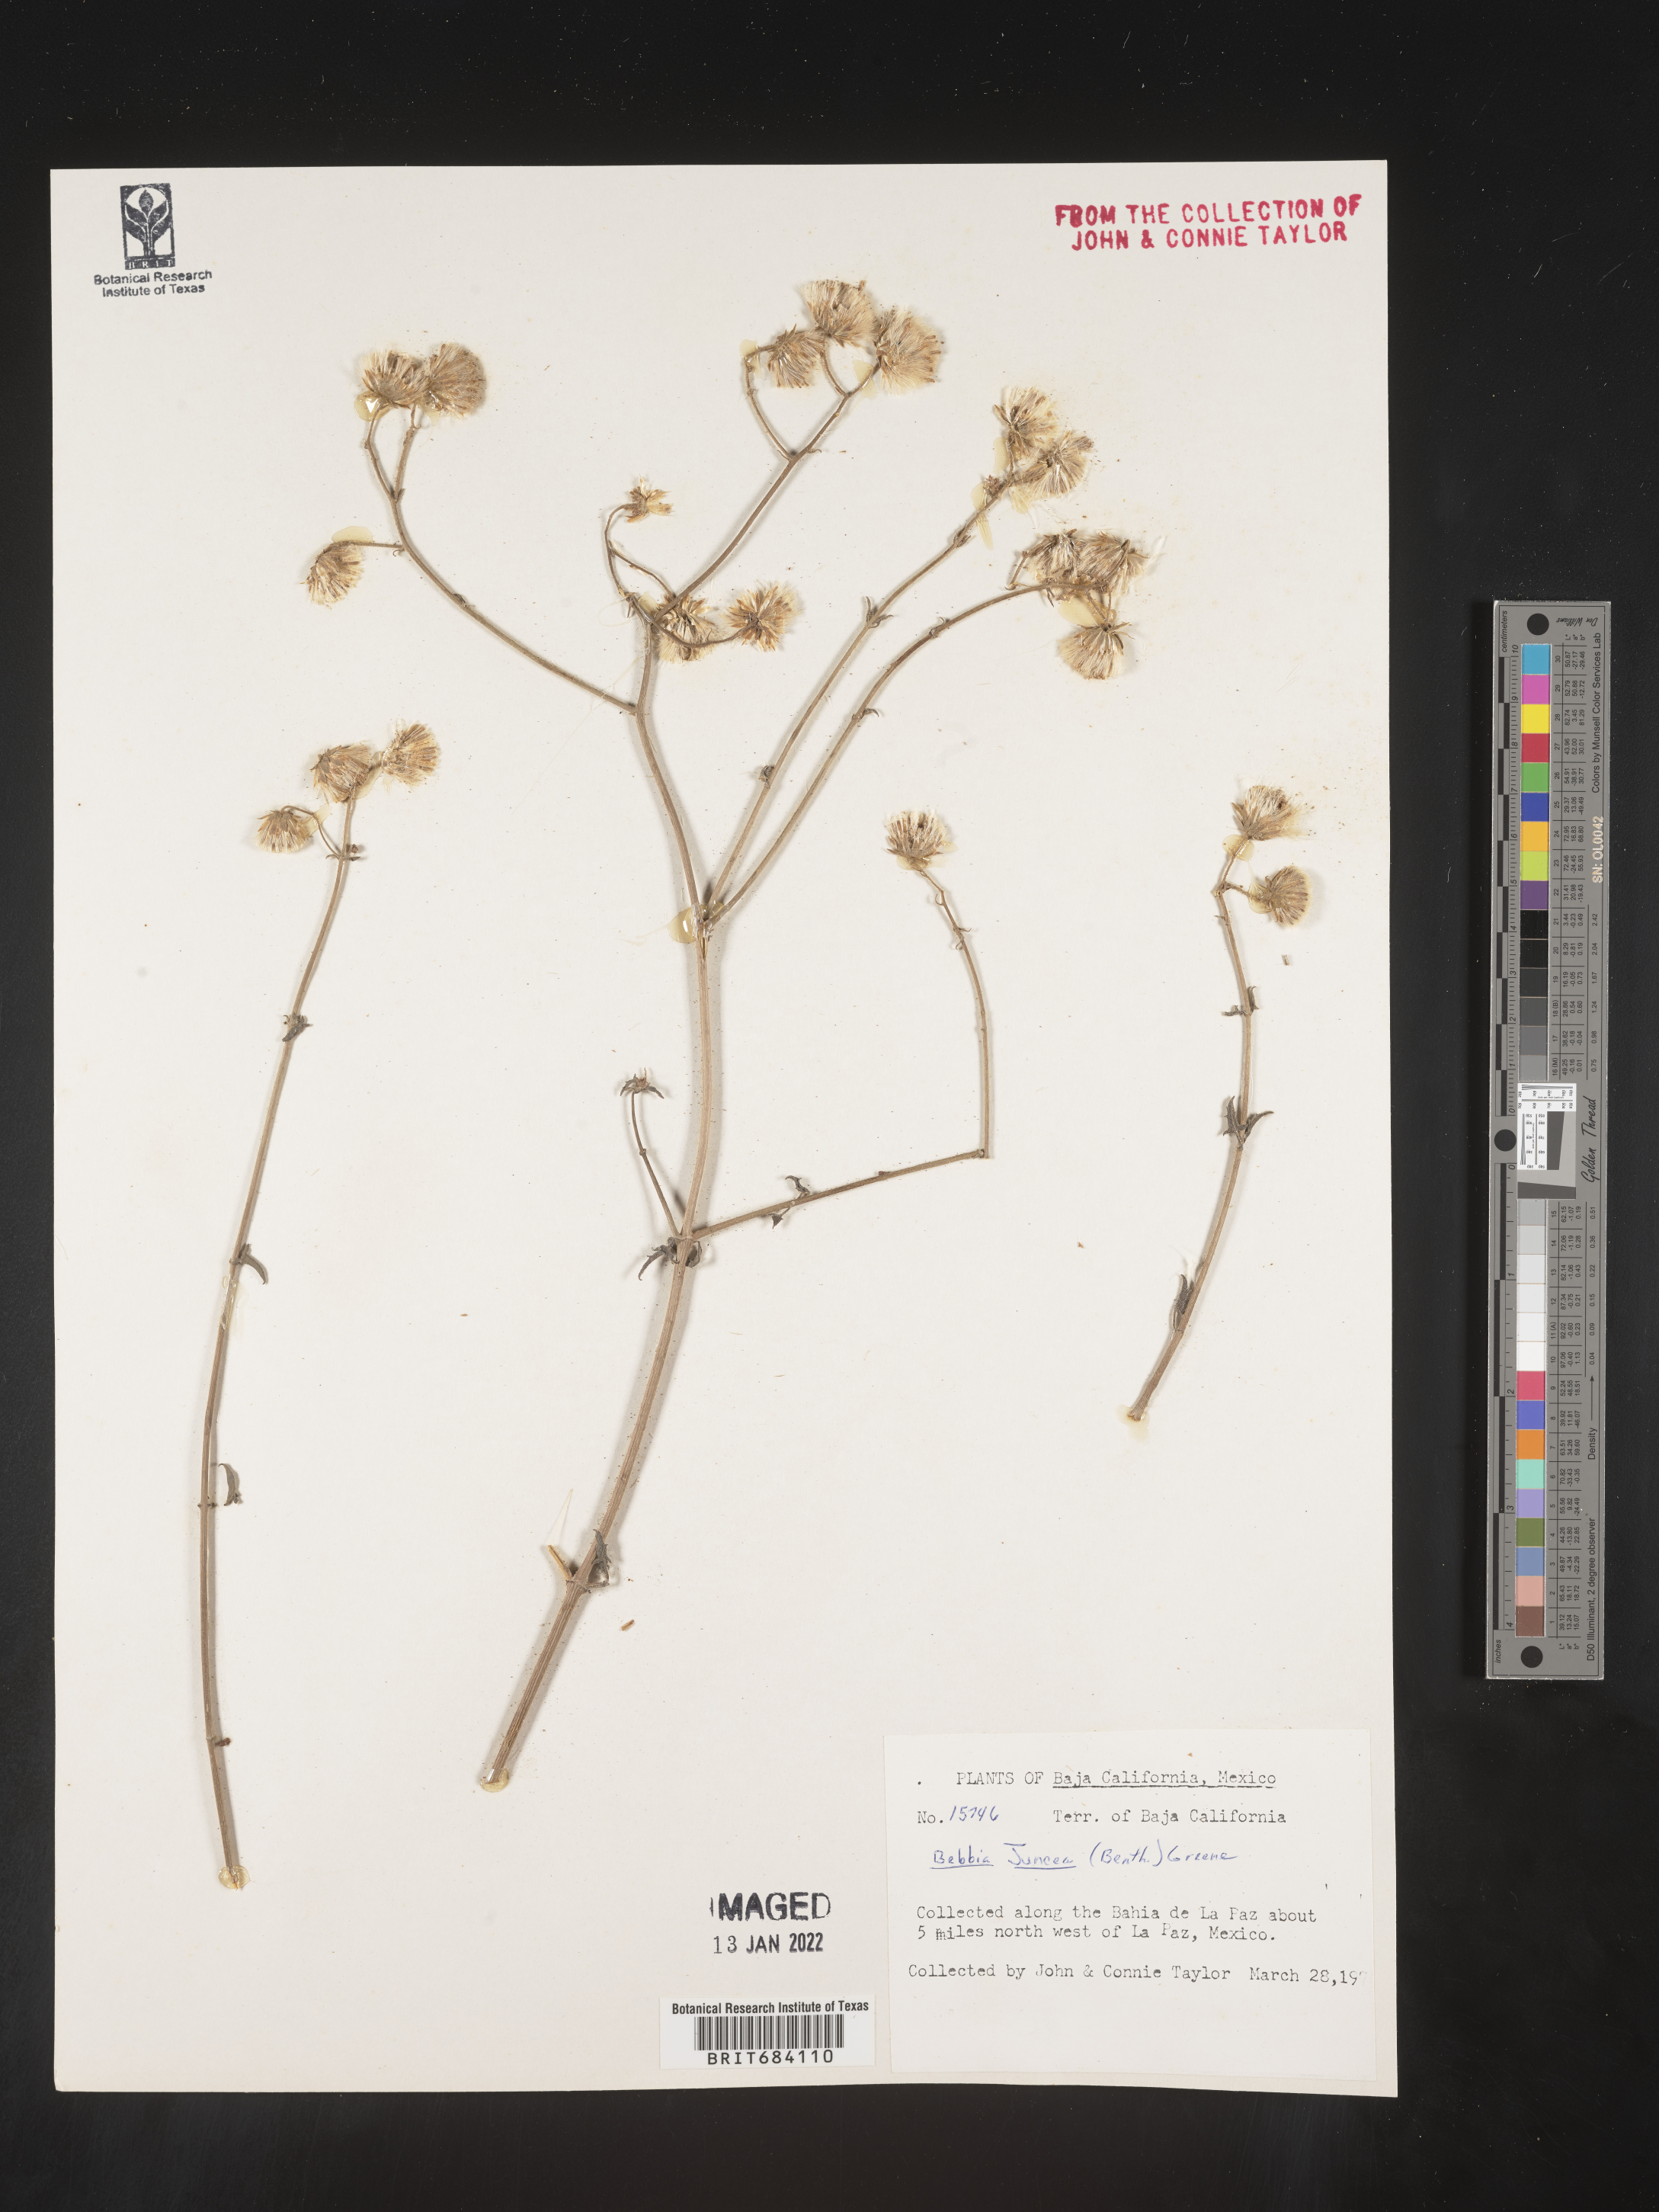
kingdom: Plantae
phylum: Tracheophyta
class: Magnoliopsida
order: Asterales
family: Asteraceae
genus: Bebbia
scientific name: Bebbia
